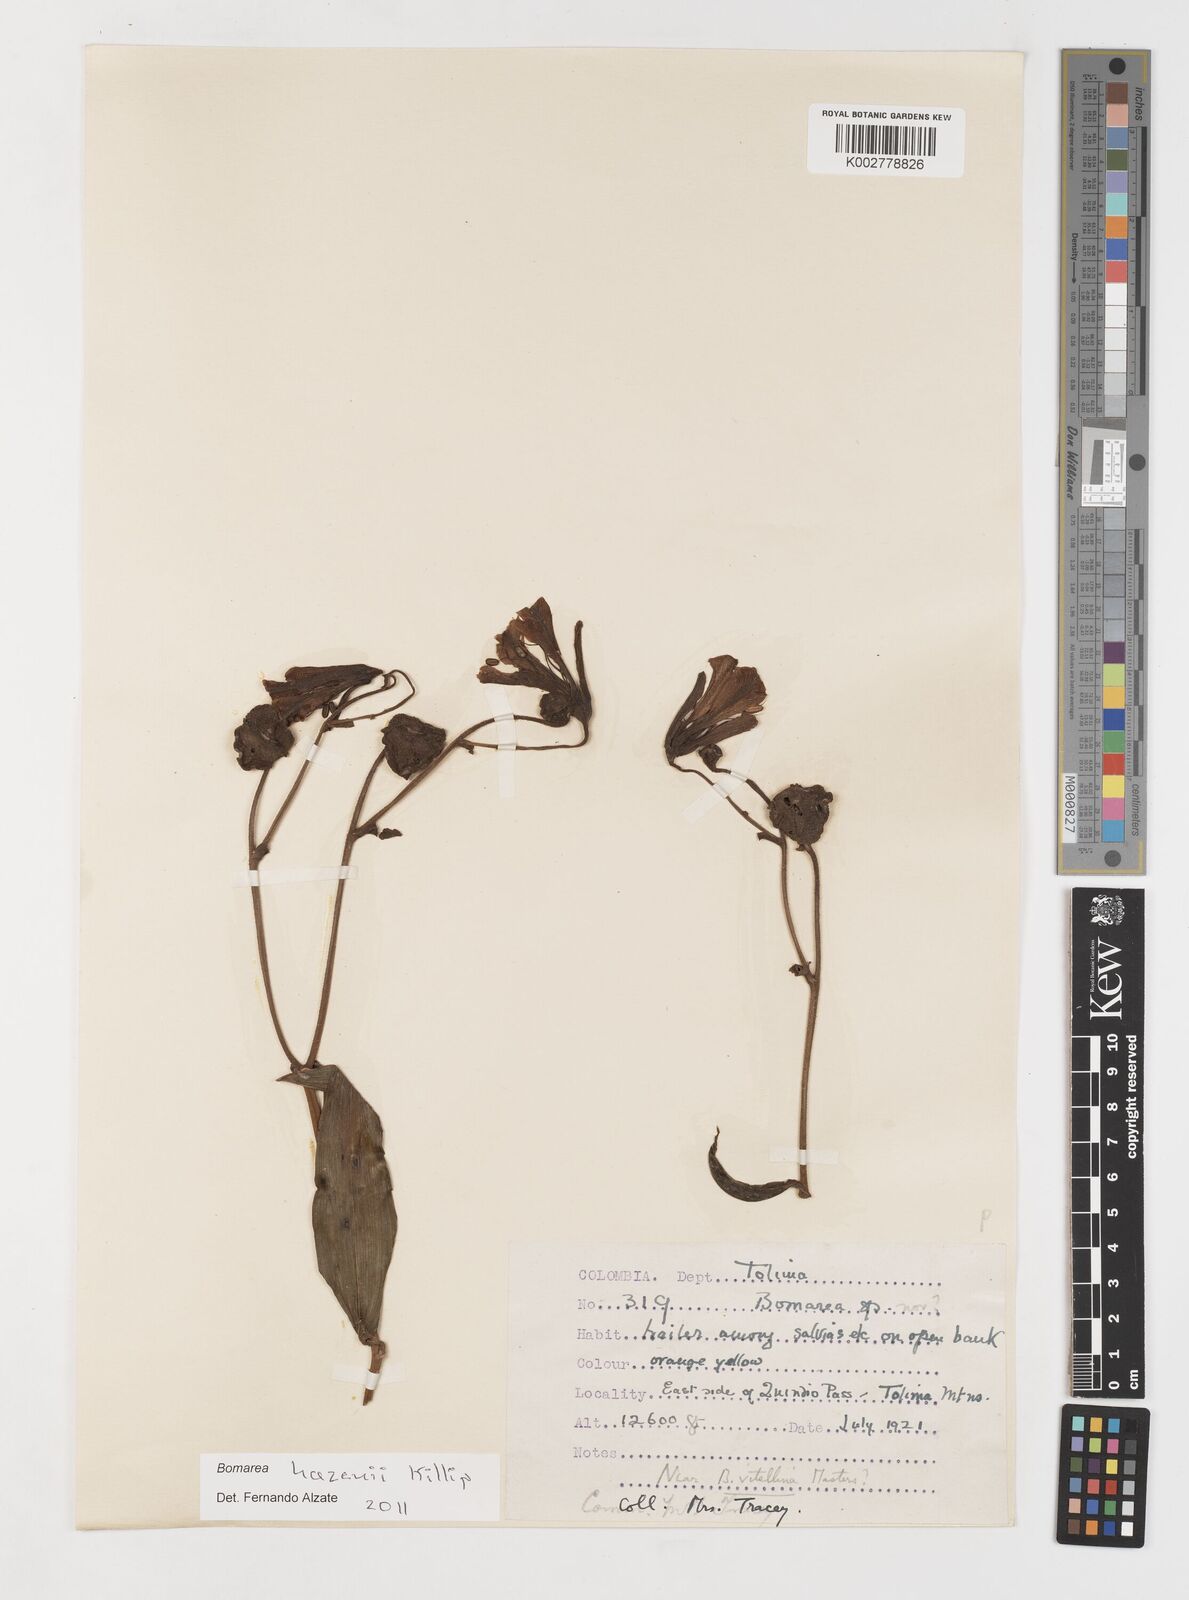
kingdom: Plantae
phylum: Tracheophyta
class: Liliopsida
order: Liliales
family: Alstroemeriaceae
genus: Bomarea
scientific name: Bomarea vitellina
